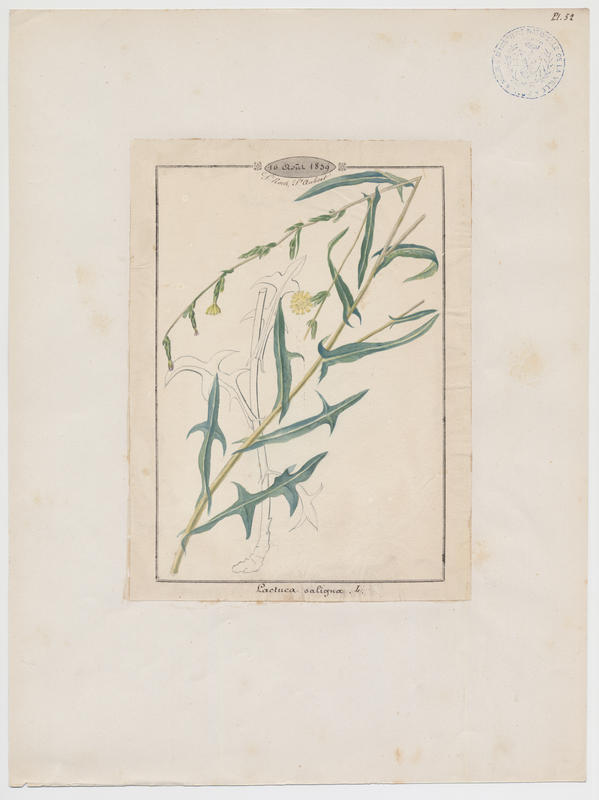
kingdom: Plantae
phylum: Tracheophyta
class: Magnoliopsida
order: Asterales
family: Asteraceae
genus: Lactuca
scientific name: Lactuca saligna
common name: Wild lettuce
